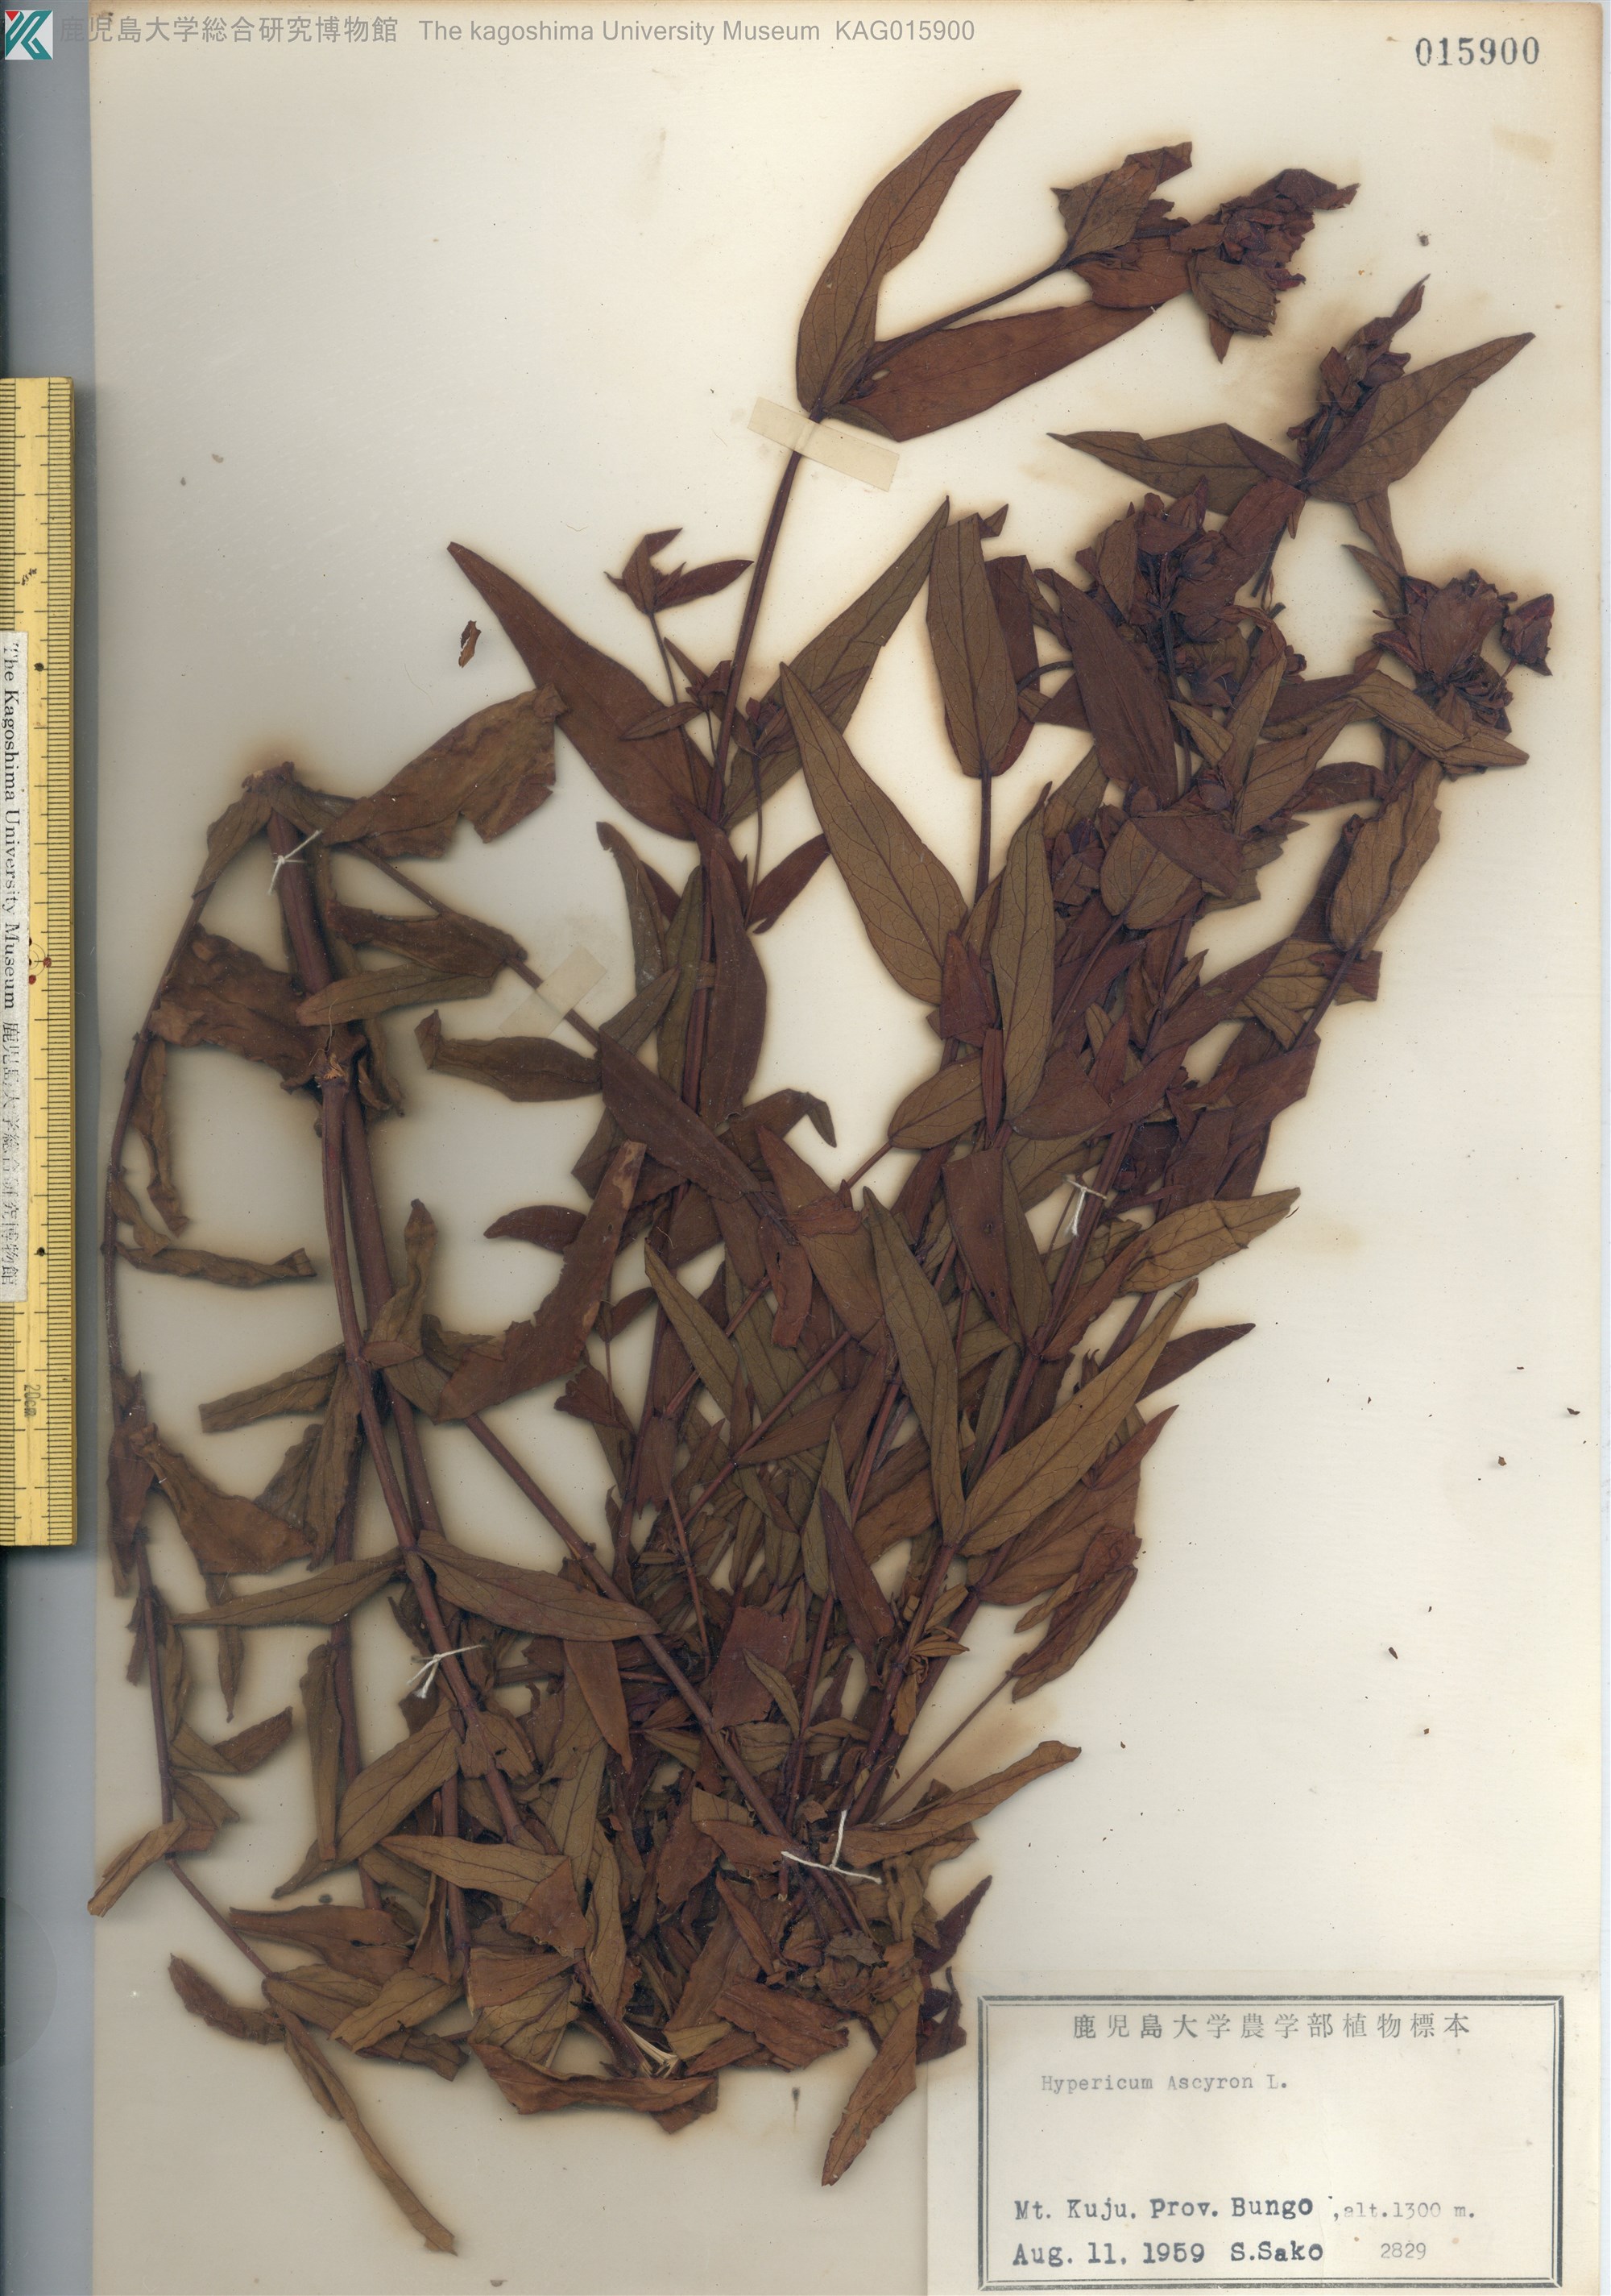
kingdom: Plantae
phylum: Tracheophyta
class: Magnoliopsida
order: Malpighiales
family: Hypericaceae
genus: Hypericum
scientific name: Hypericum ascyron
